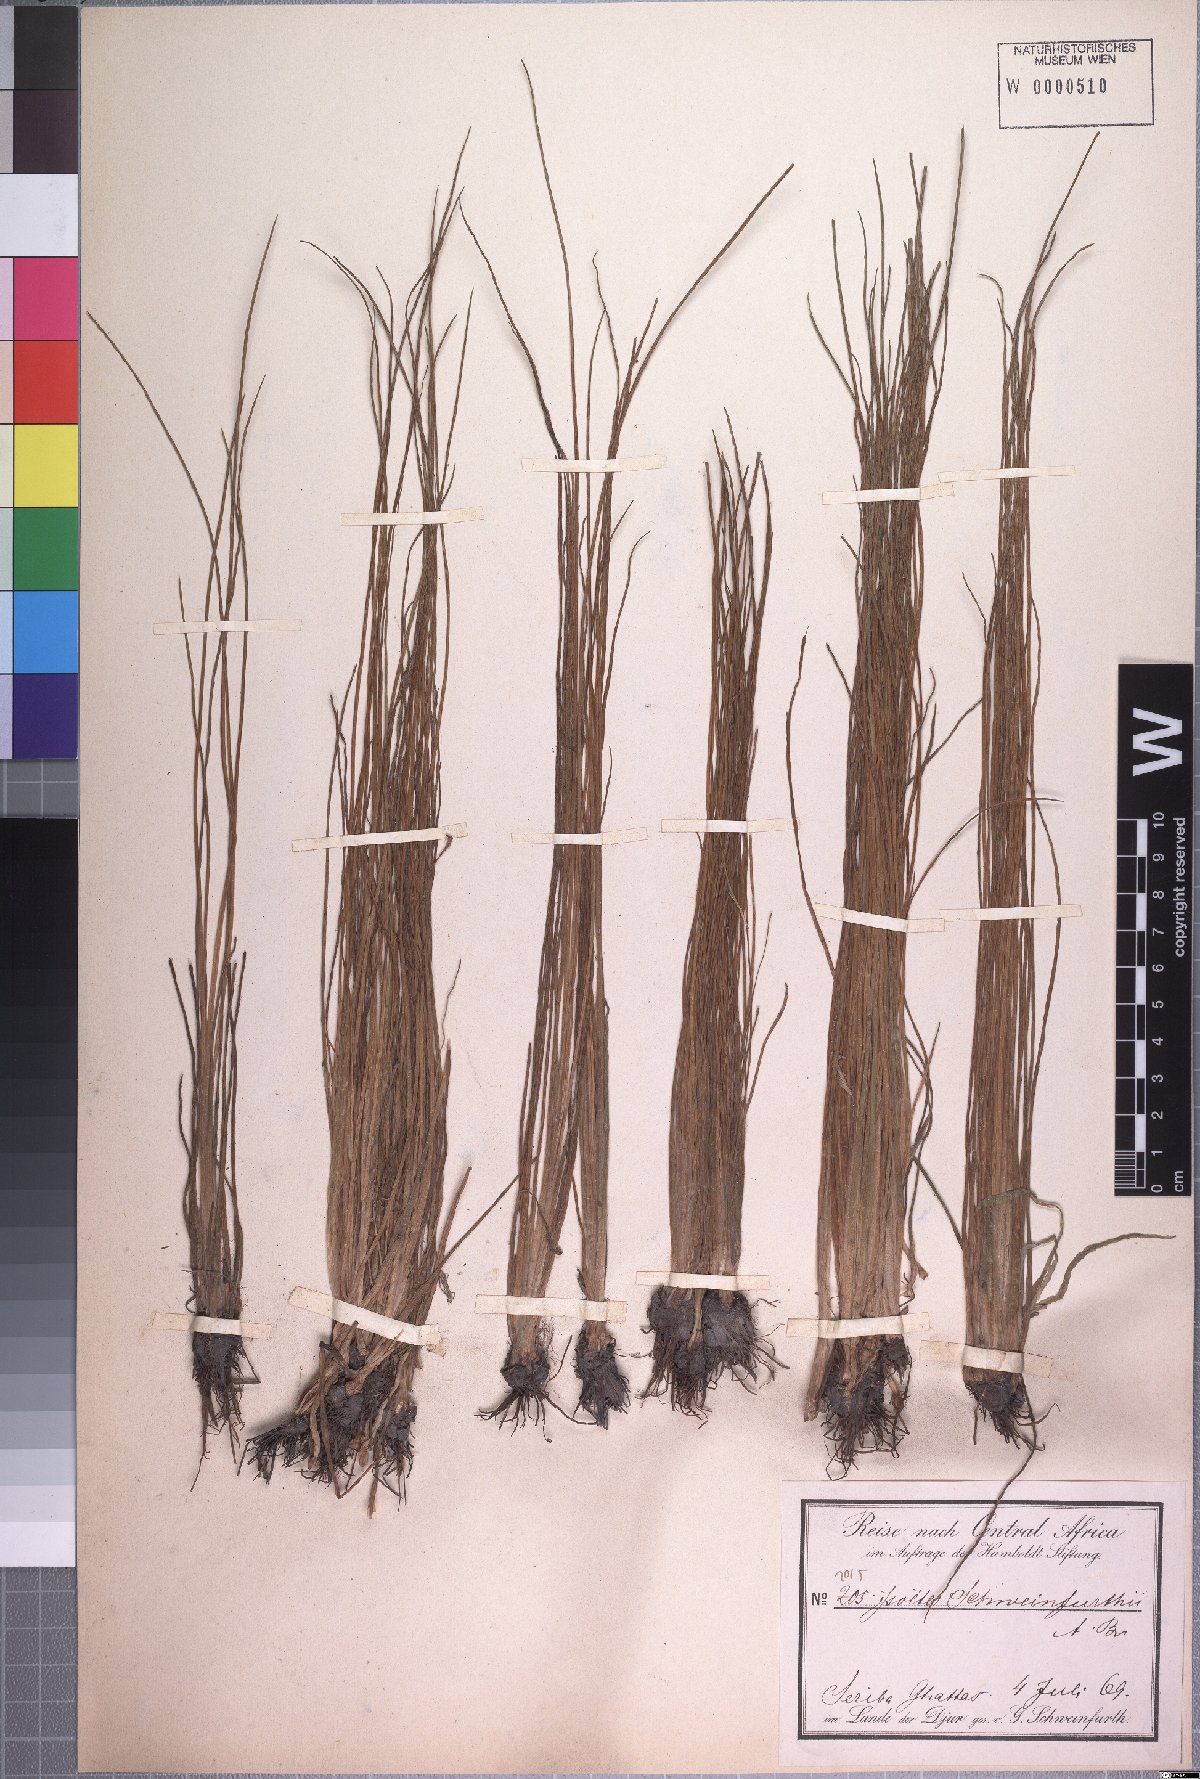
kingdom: Plantae
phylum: Tracheophyta
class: Lycopodiopsida
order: Isoetales
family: Isoetaceae
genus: Isoetes
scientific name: Isoetes schweinfurthii
